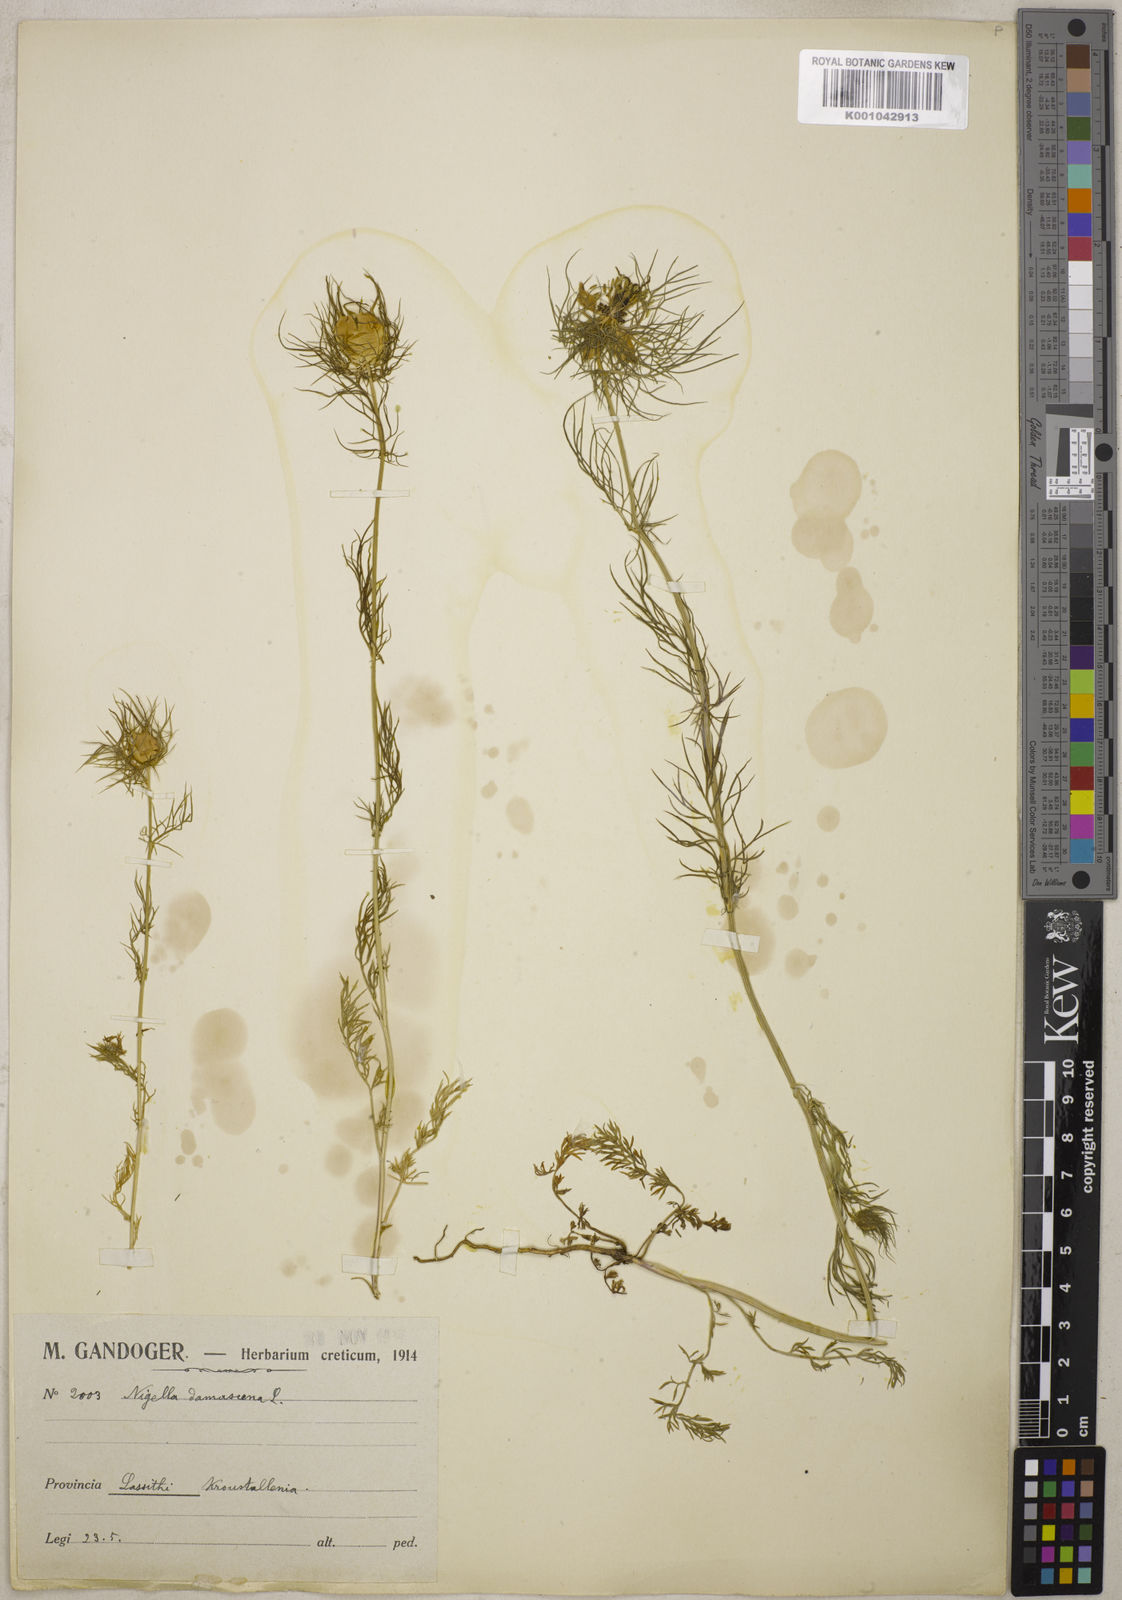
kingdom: Plantae
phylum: Tracheophyta
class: Magnoliopsida
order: Ranunculales
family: Ranunculaceae
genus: Nigella
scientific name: Nigella damascena
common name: Love-in-a-mist
